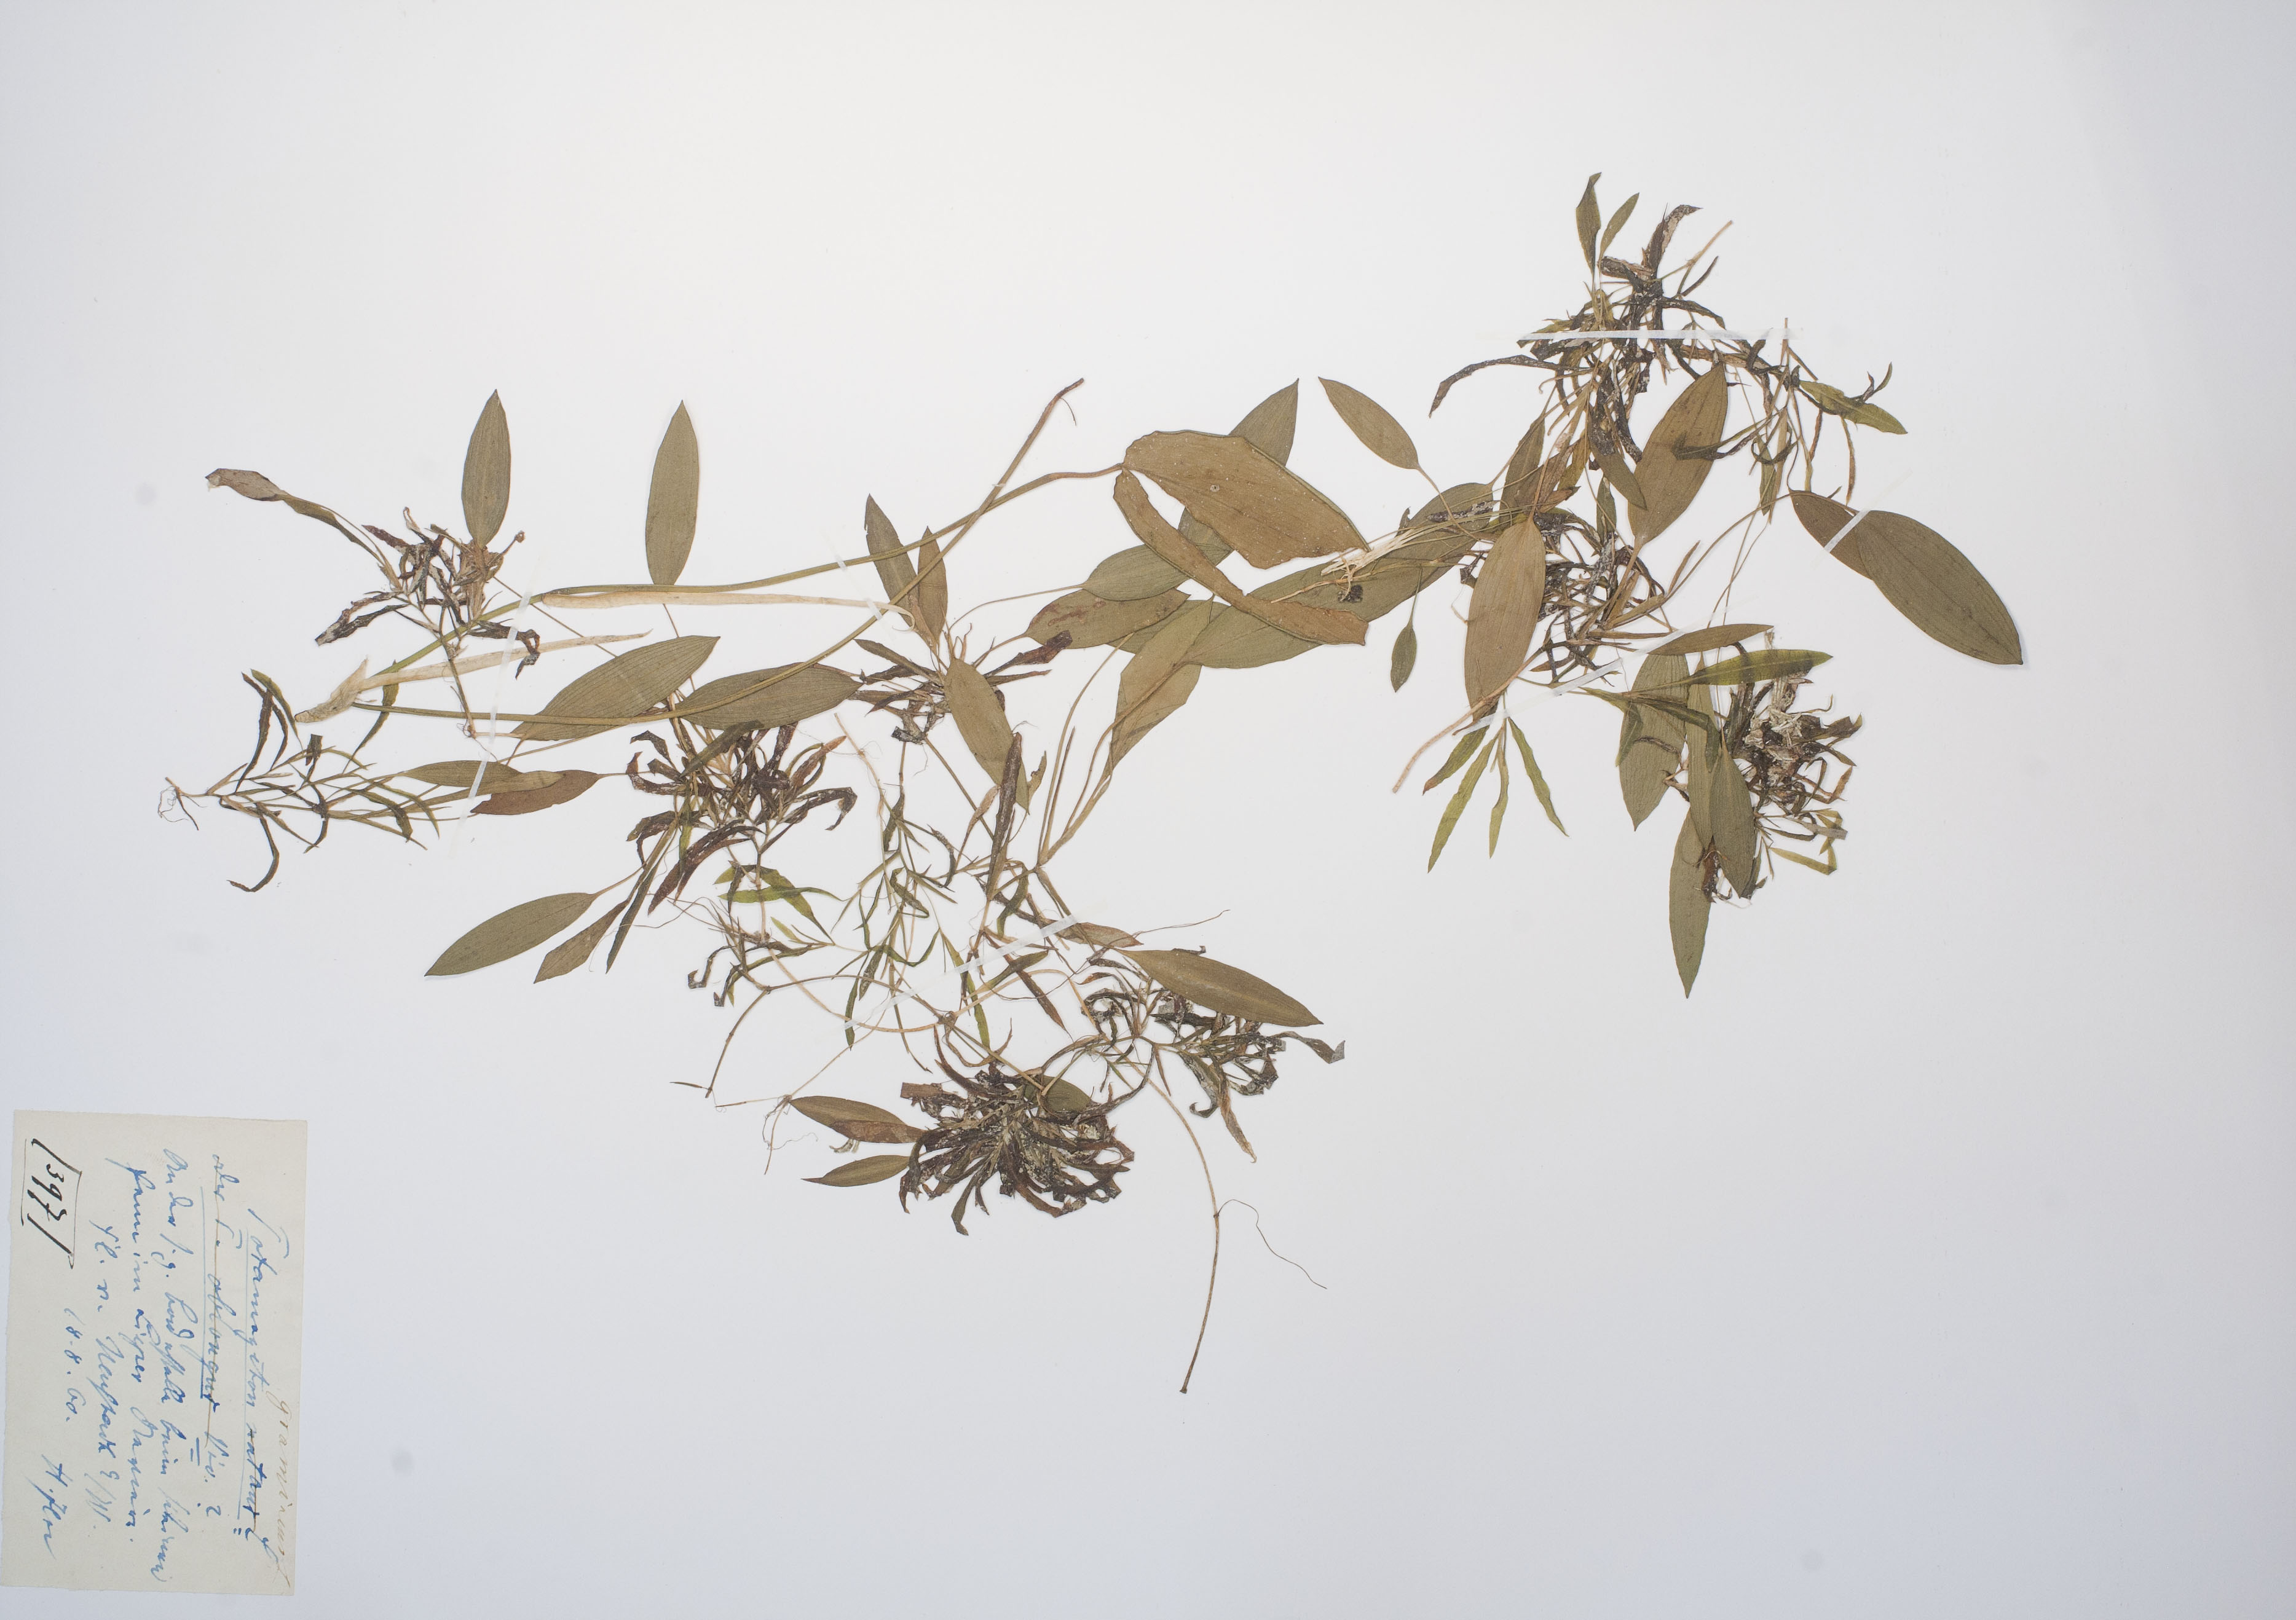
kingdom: Plantae
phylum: Tracheophyta
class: Liliopsida
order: Alismatales
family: Potamogetonaceae
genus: Potamogeton
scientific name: Potamogeton gramineus
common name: Various-leaved pondweed
